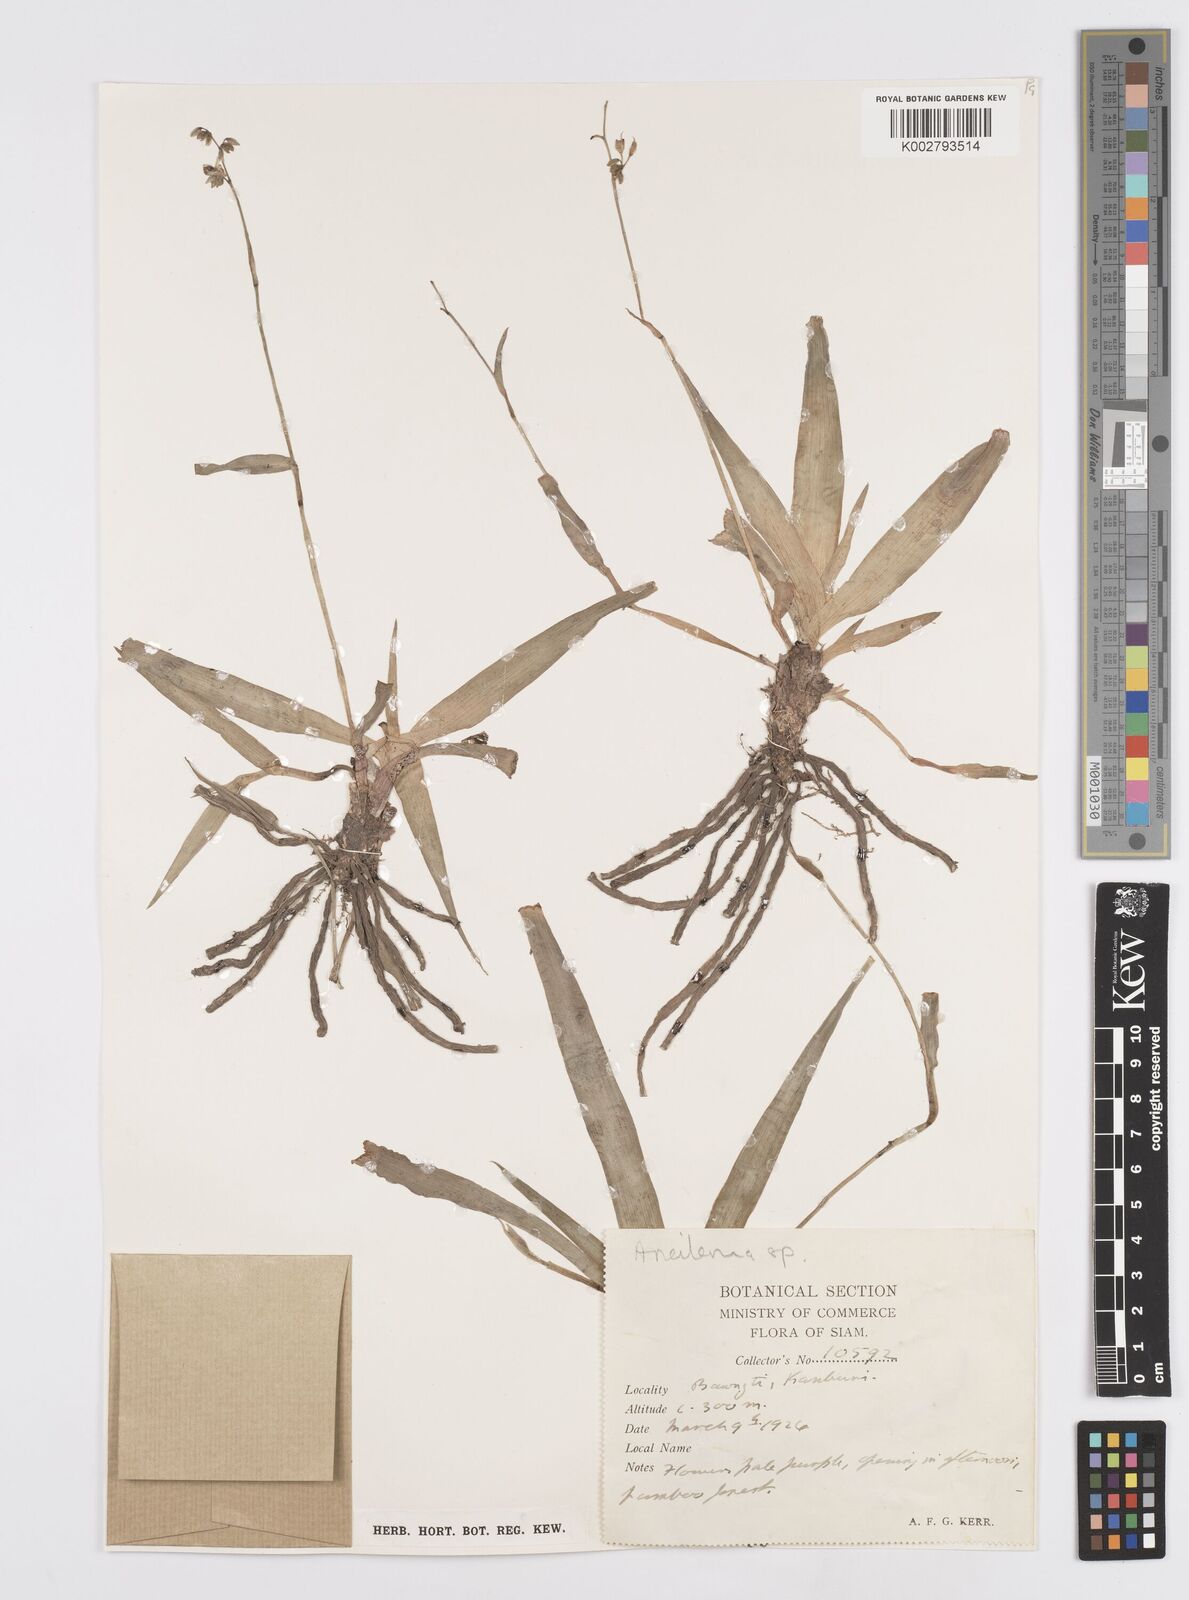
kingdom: Plantae
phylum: Tracheophyta
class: Liliopsida
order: Commelinales
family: Commelinaceae
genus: Murdannia
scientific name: Murdannia
